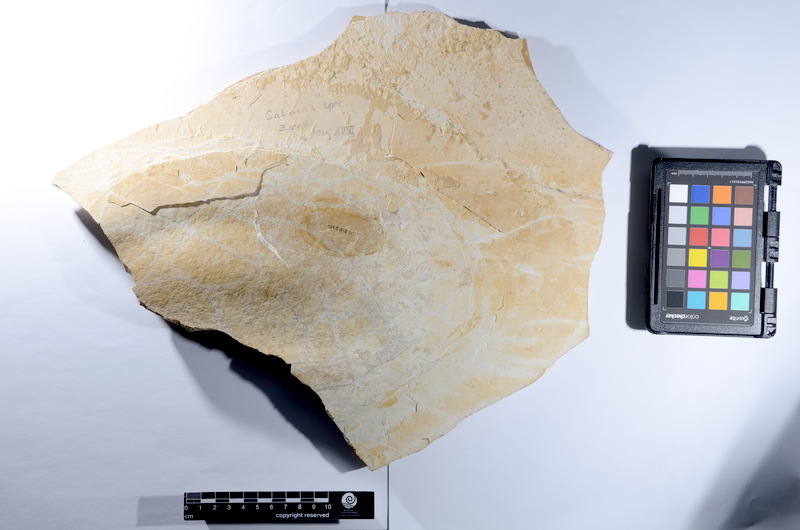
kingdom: Animalia
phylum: Chordata
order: Amiiformes
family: Caturidae
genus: Caturus
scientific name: Caturus
